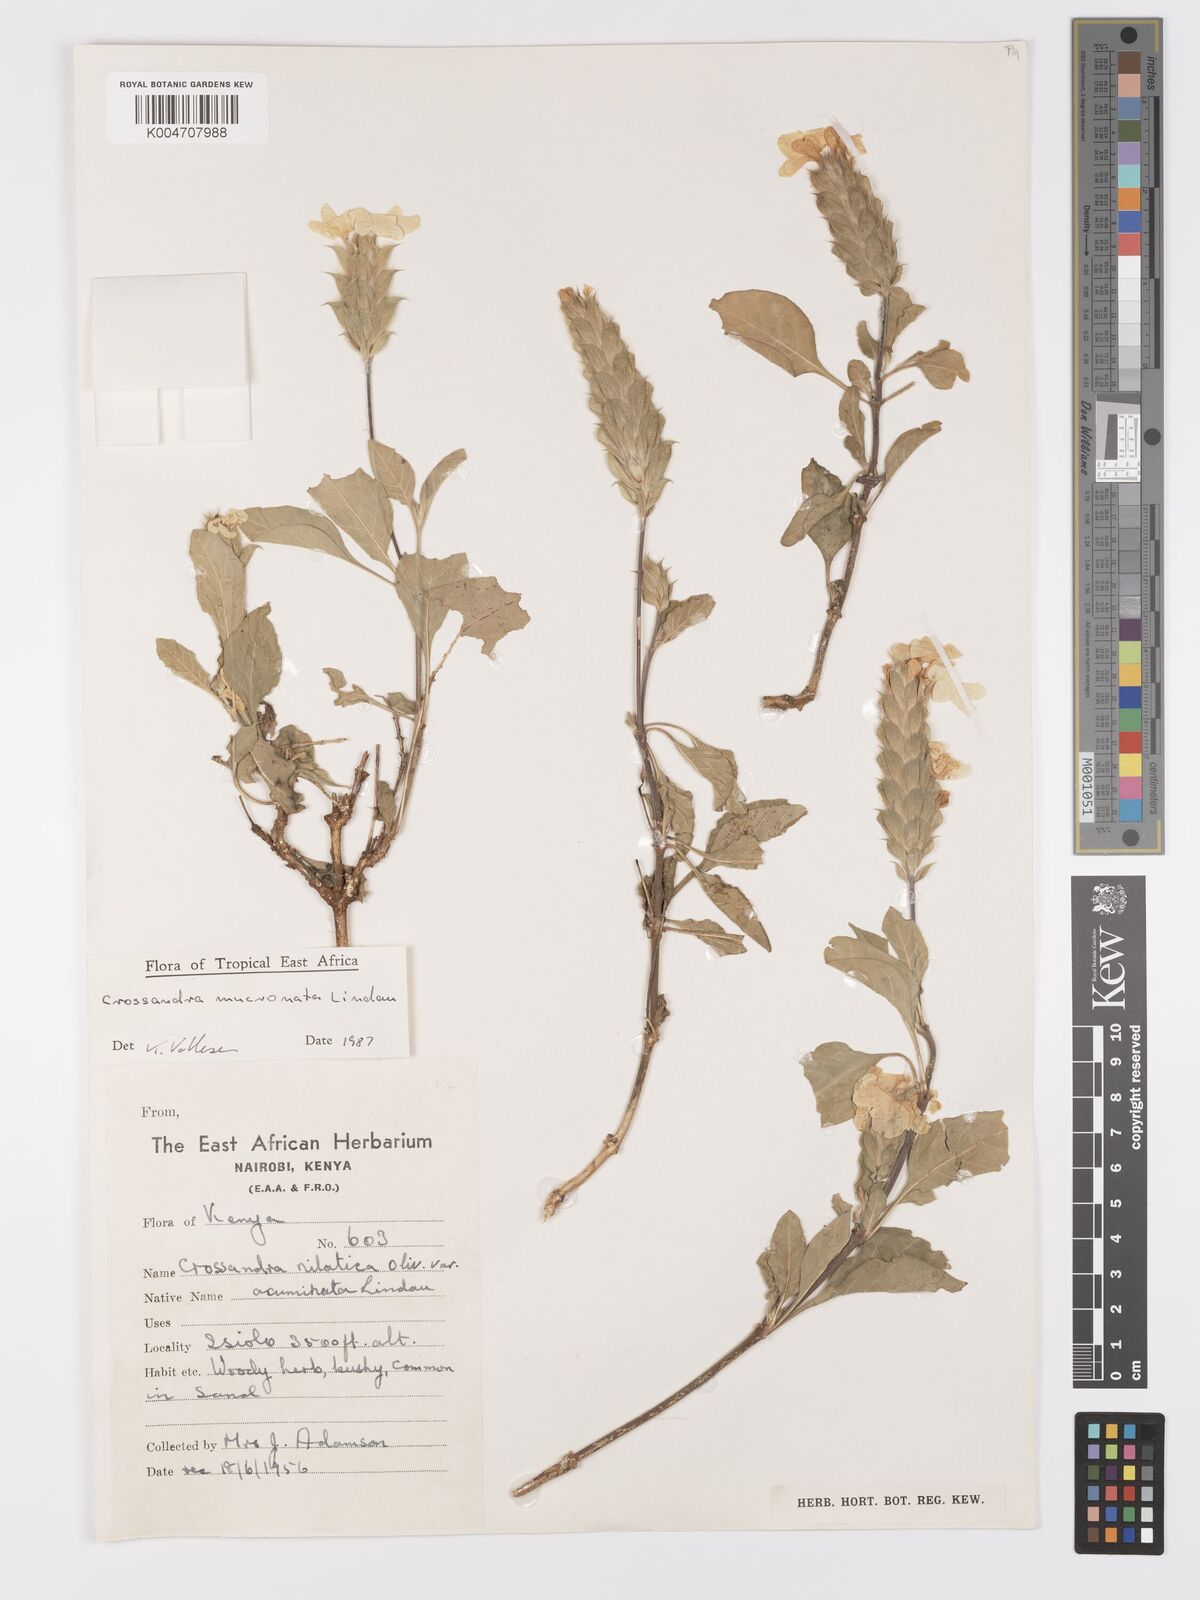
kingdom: Plantae
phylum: Tracheophyta
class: Magnoliopsida
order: Lamiales
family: Acanthaceae
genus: Crossandra
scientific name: Crossandra mucronata
